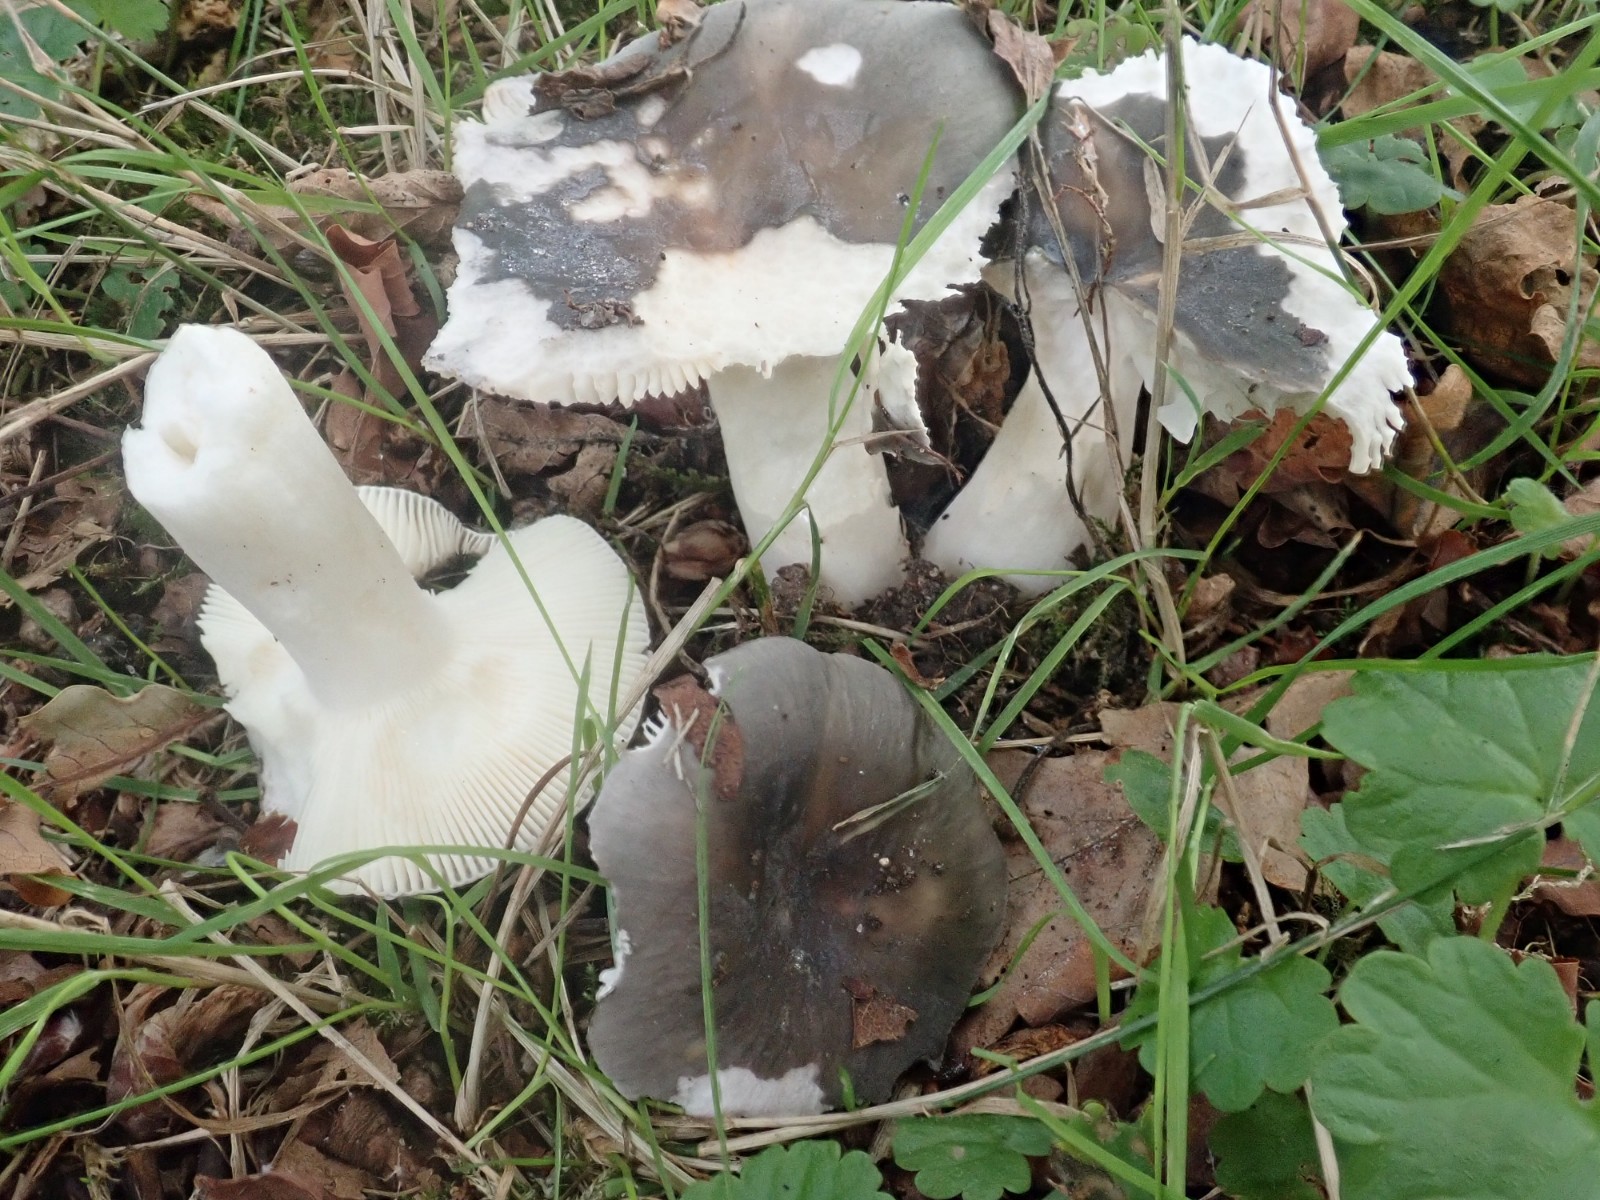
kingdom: Fungi
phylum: Basidiomycota
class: Agaricomycetes
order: Russulales
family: Russulaceae
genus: Russula
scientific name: Russula
